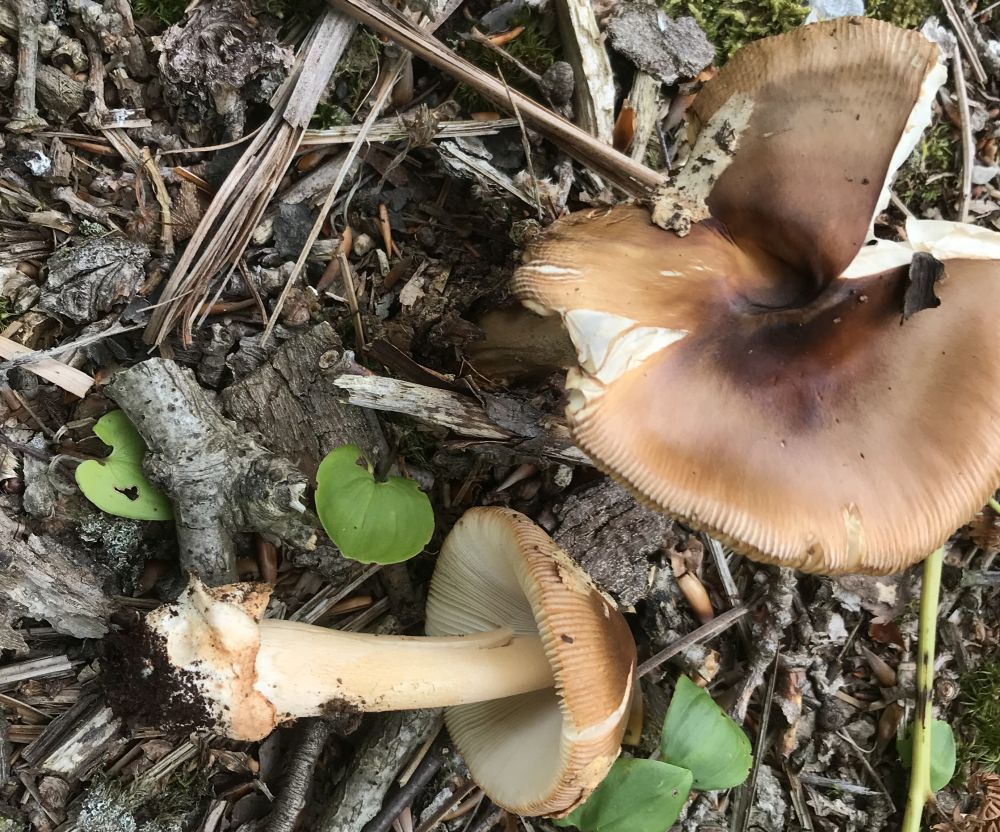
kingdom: Fungi
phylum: Basidiomycota
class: Agaricomycetes
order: Agaricales
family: Amanitaceae
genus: Amanita
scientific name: Amanita fulva
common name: brun kam-fluesvamp
